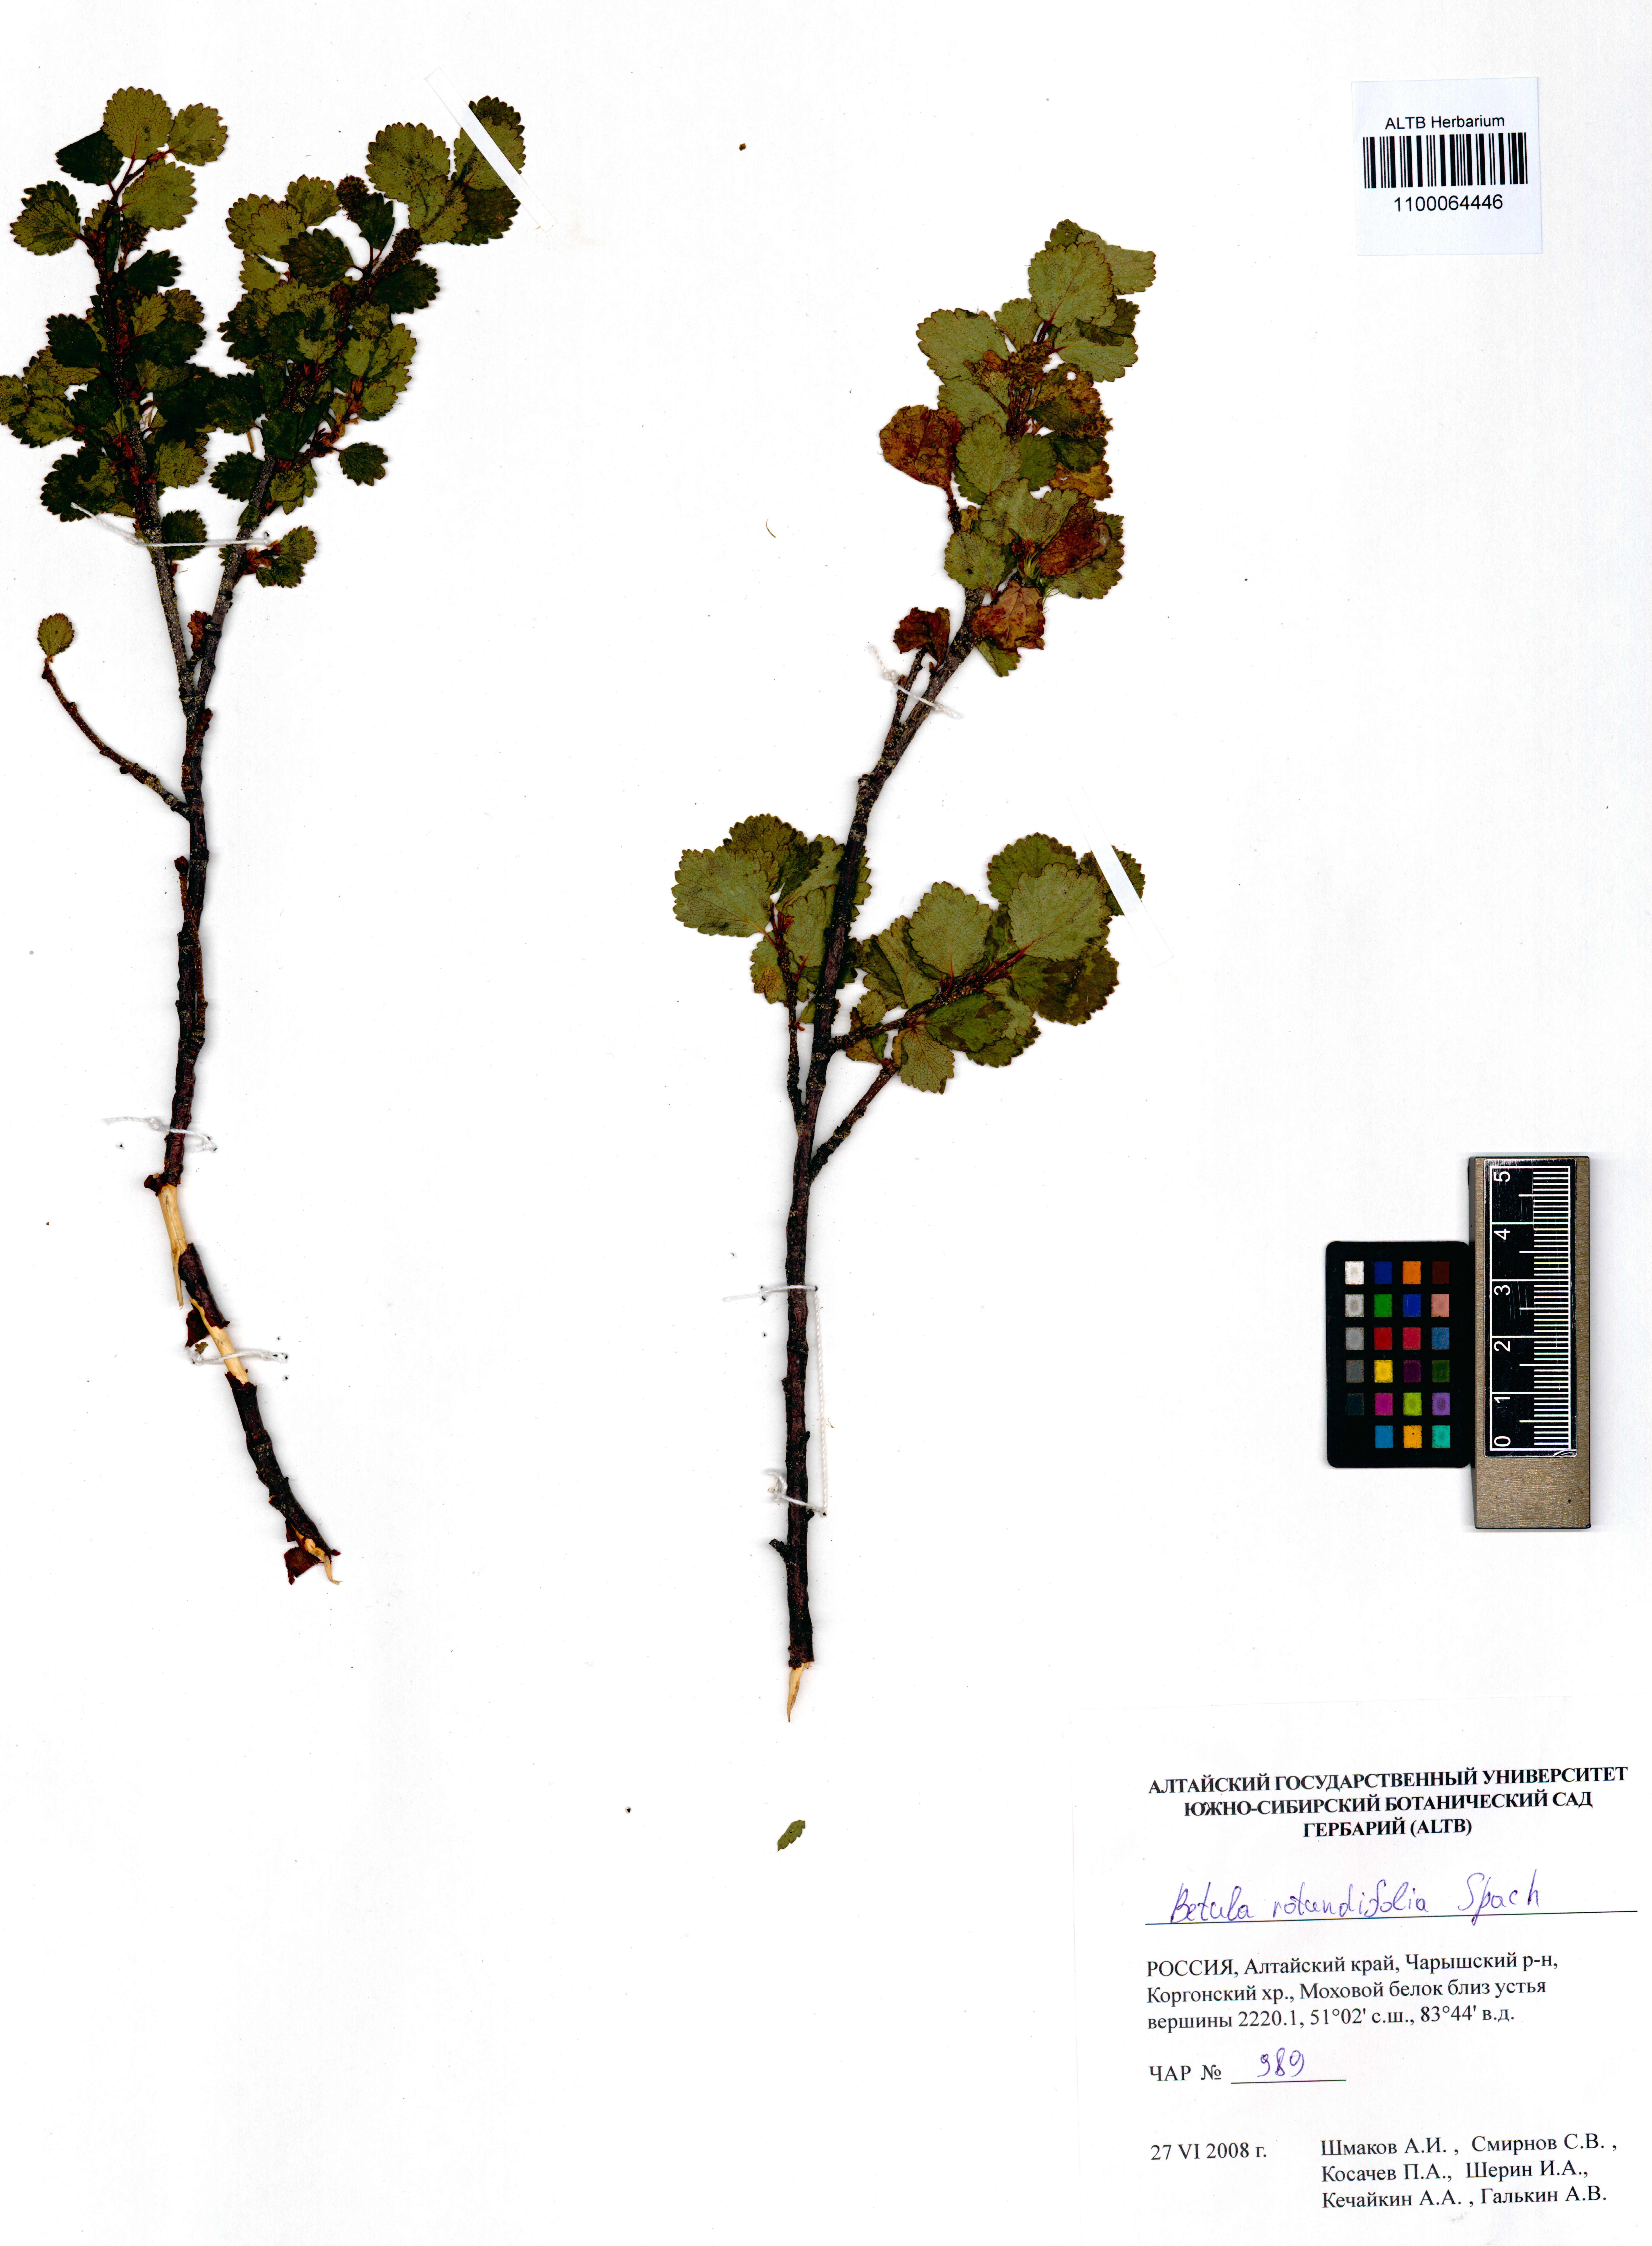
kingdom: Plantae
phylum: Tracheophyta
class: Magnoliopsida
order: Fagales
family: Betulaceae
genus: Betula
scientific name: Betula glandulosa
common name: Dwarf birch
